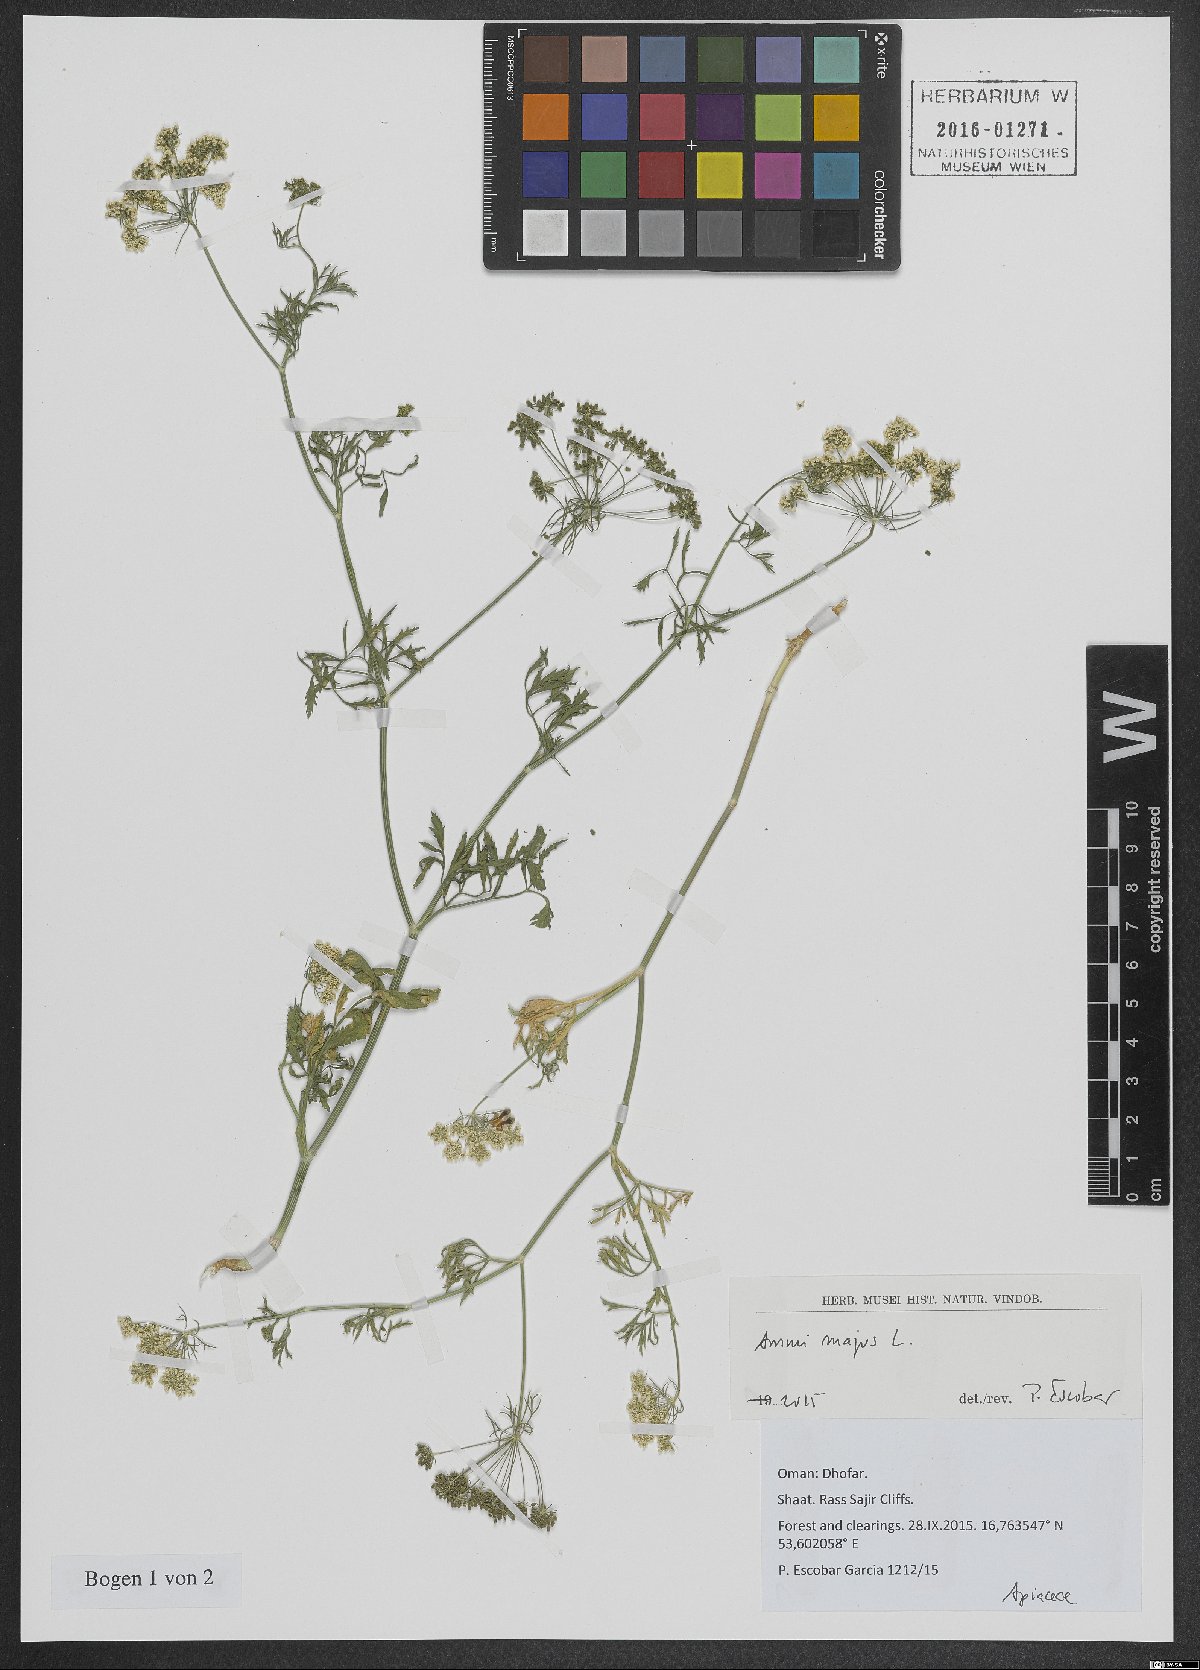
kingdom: Plantae
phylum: Tracheophyta
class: Magnoliopsida
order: Apiales
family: Apiaceae
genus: Ammi
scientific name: Ammi majus
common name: Bullwort
